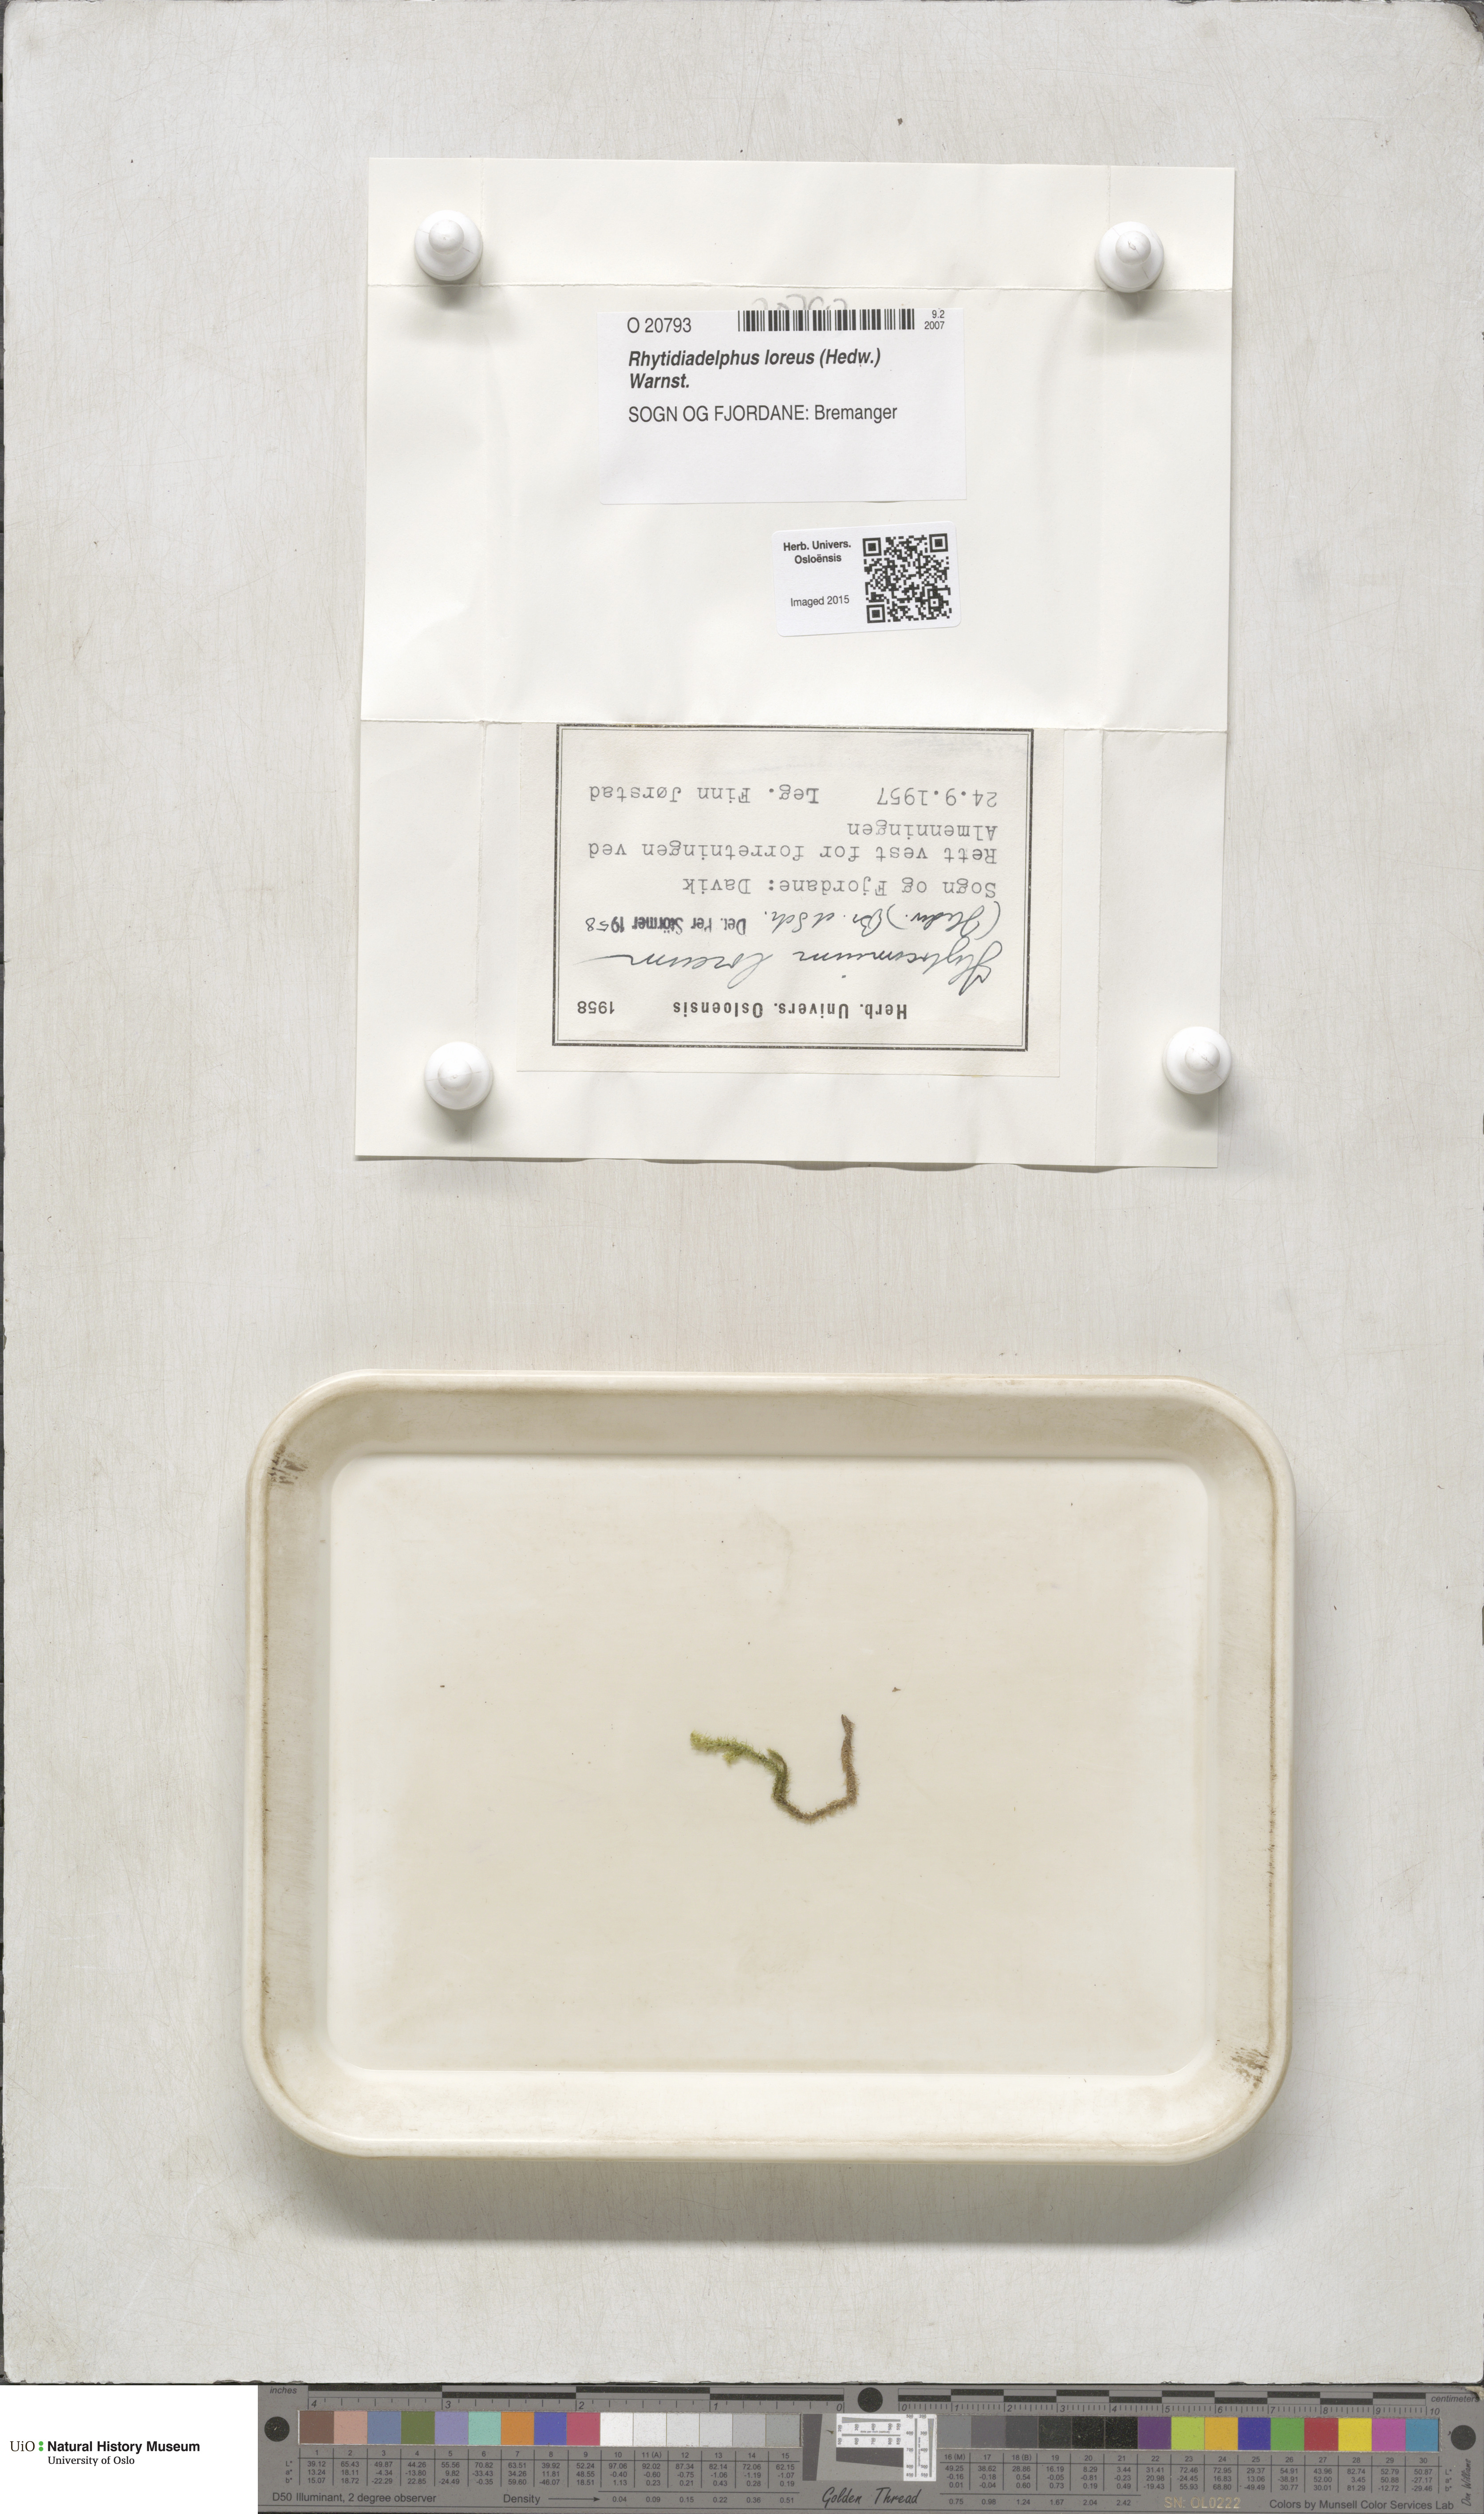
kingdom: Plantae
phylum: Bryophyta
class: Bryopsida
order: Hypnales
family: Hylocomiaceae
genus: Rhytidiadelphus
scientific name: Rhytidiadelphus loreus
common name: Lanky moss
